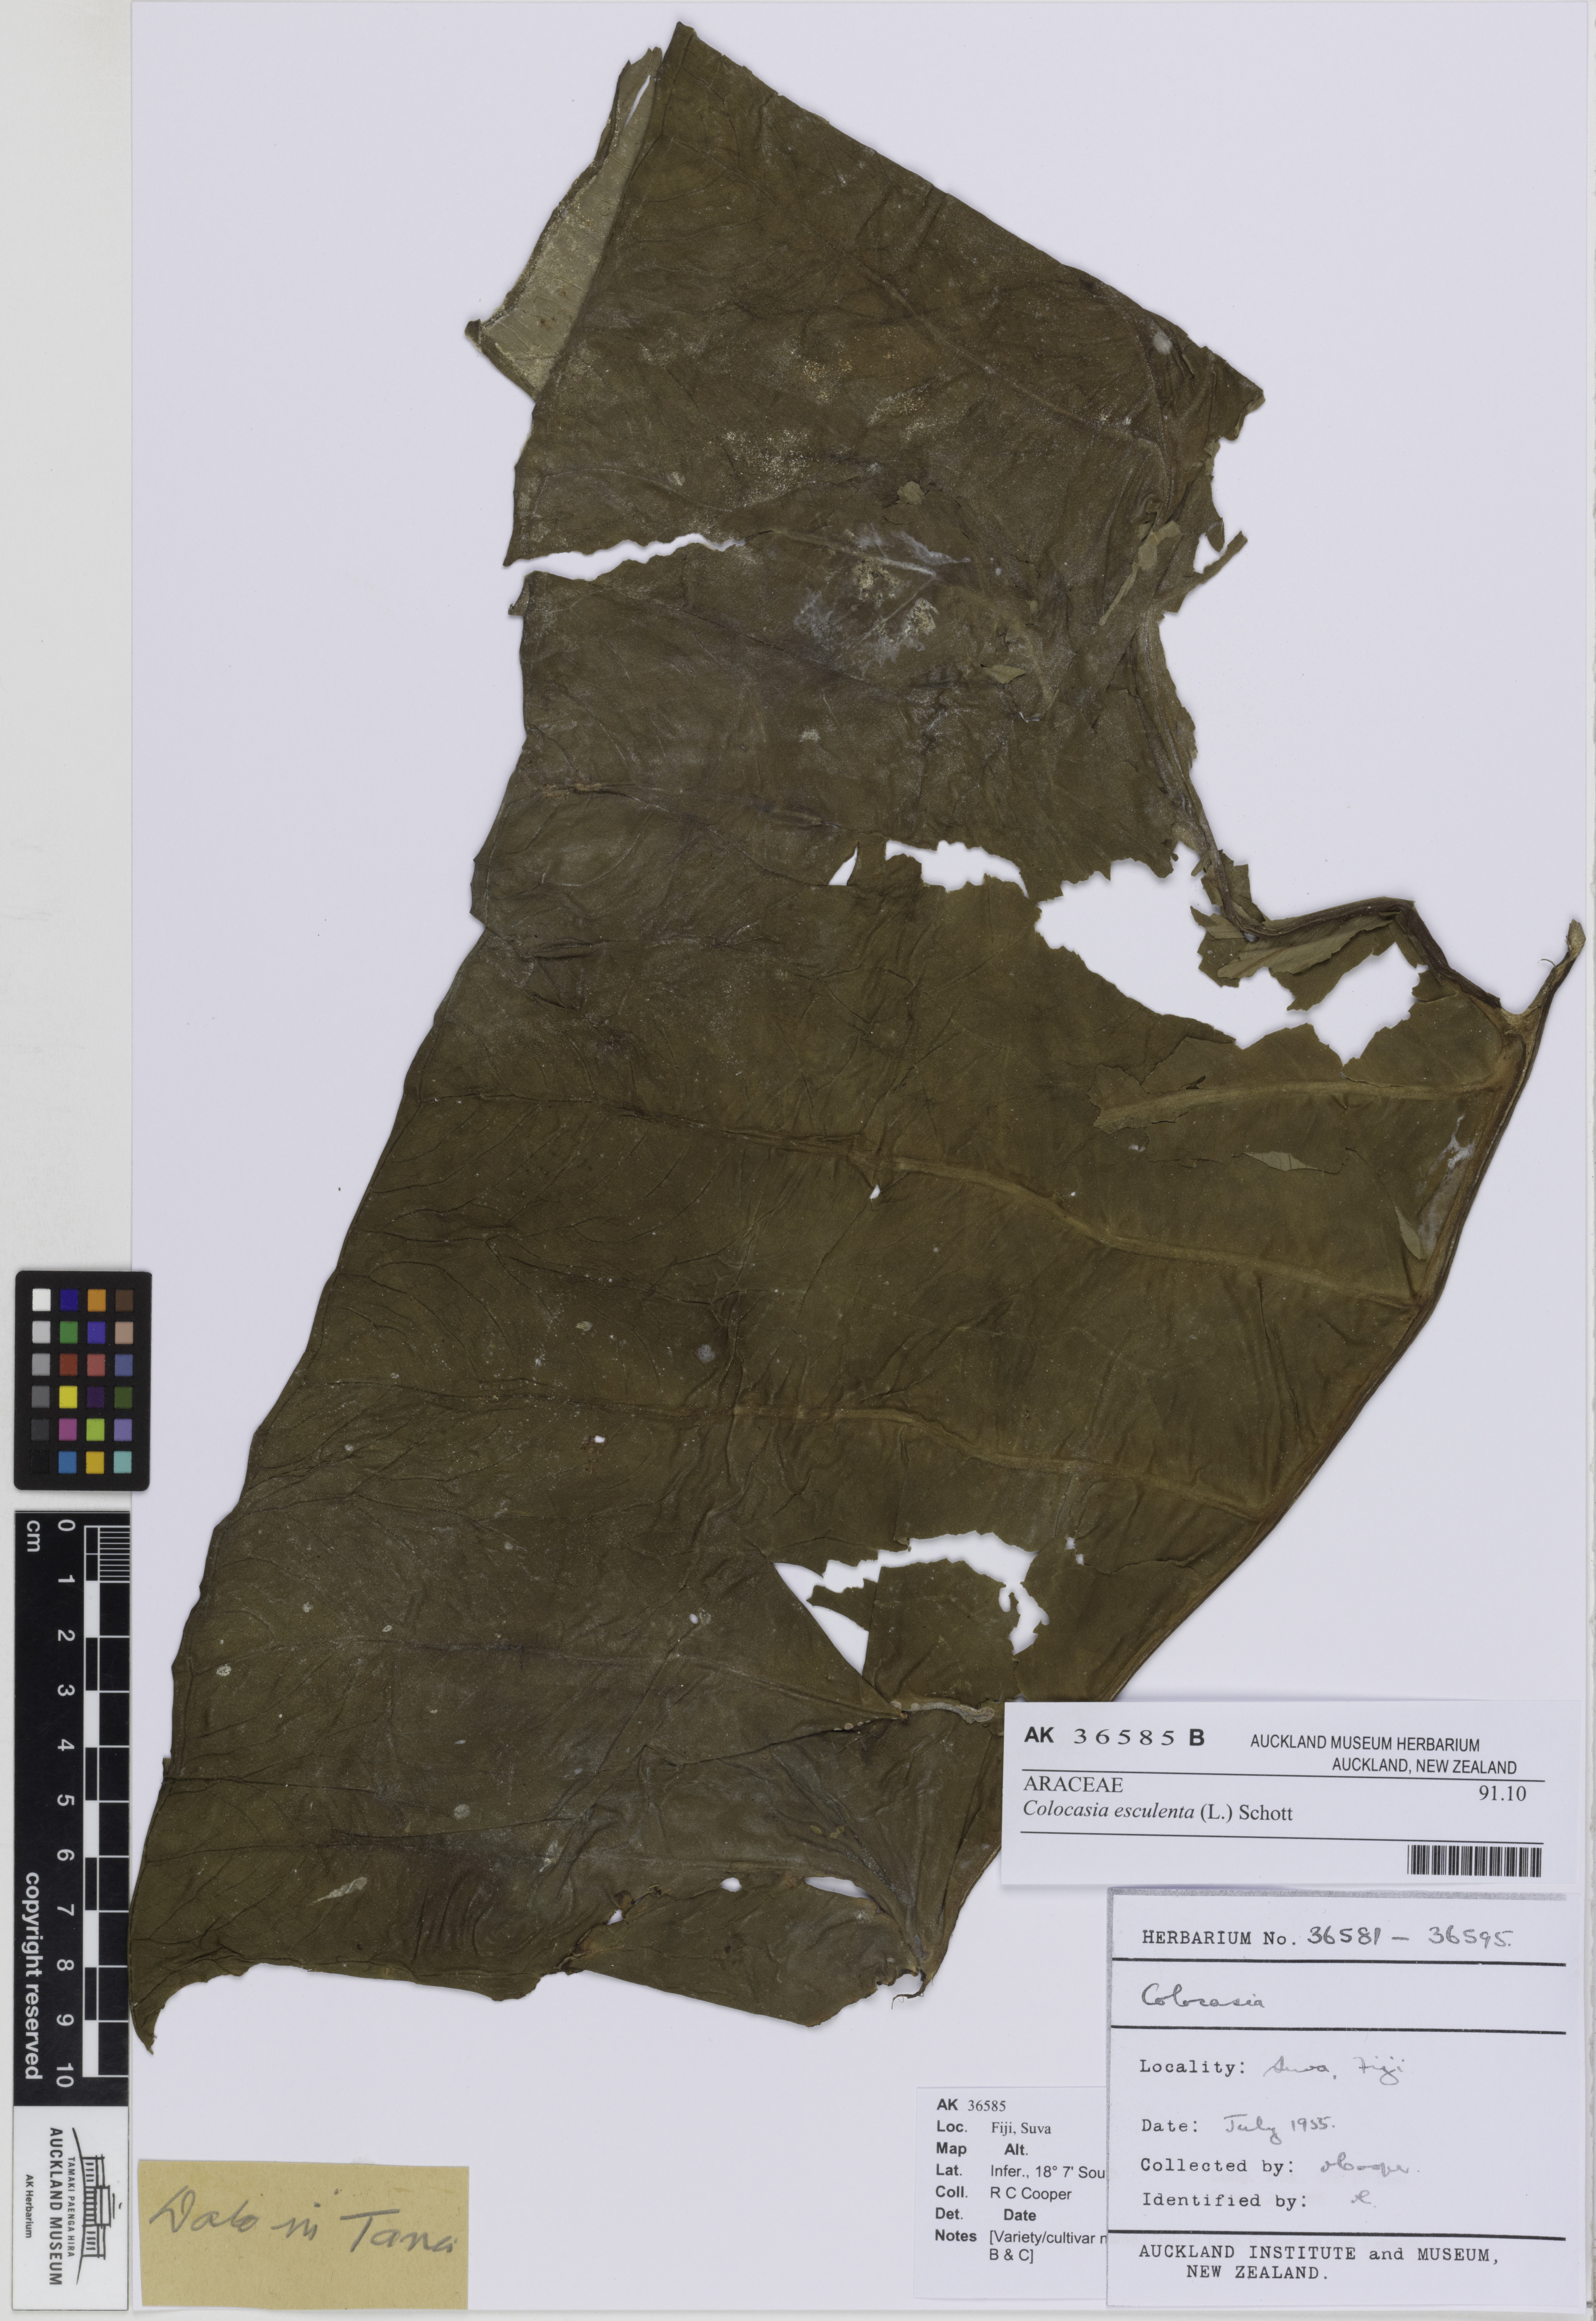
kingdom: Plantae
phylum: Tracheophyta
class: Liliopsida
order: Alismatales
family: Araceae
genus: Colocasia
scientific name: Colocasia esculenta
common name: Taro
